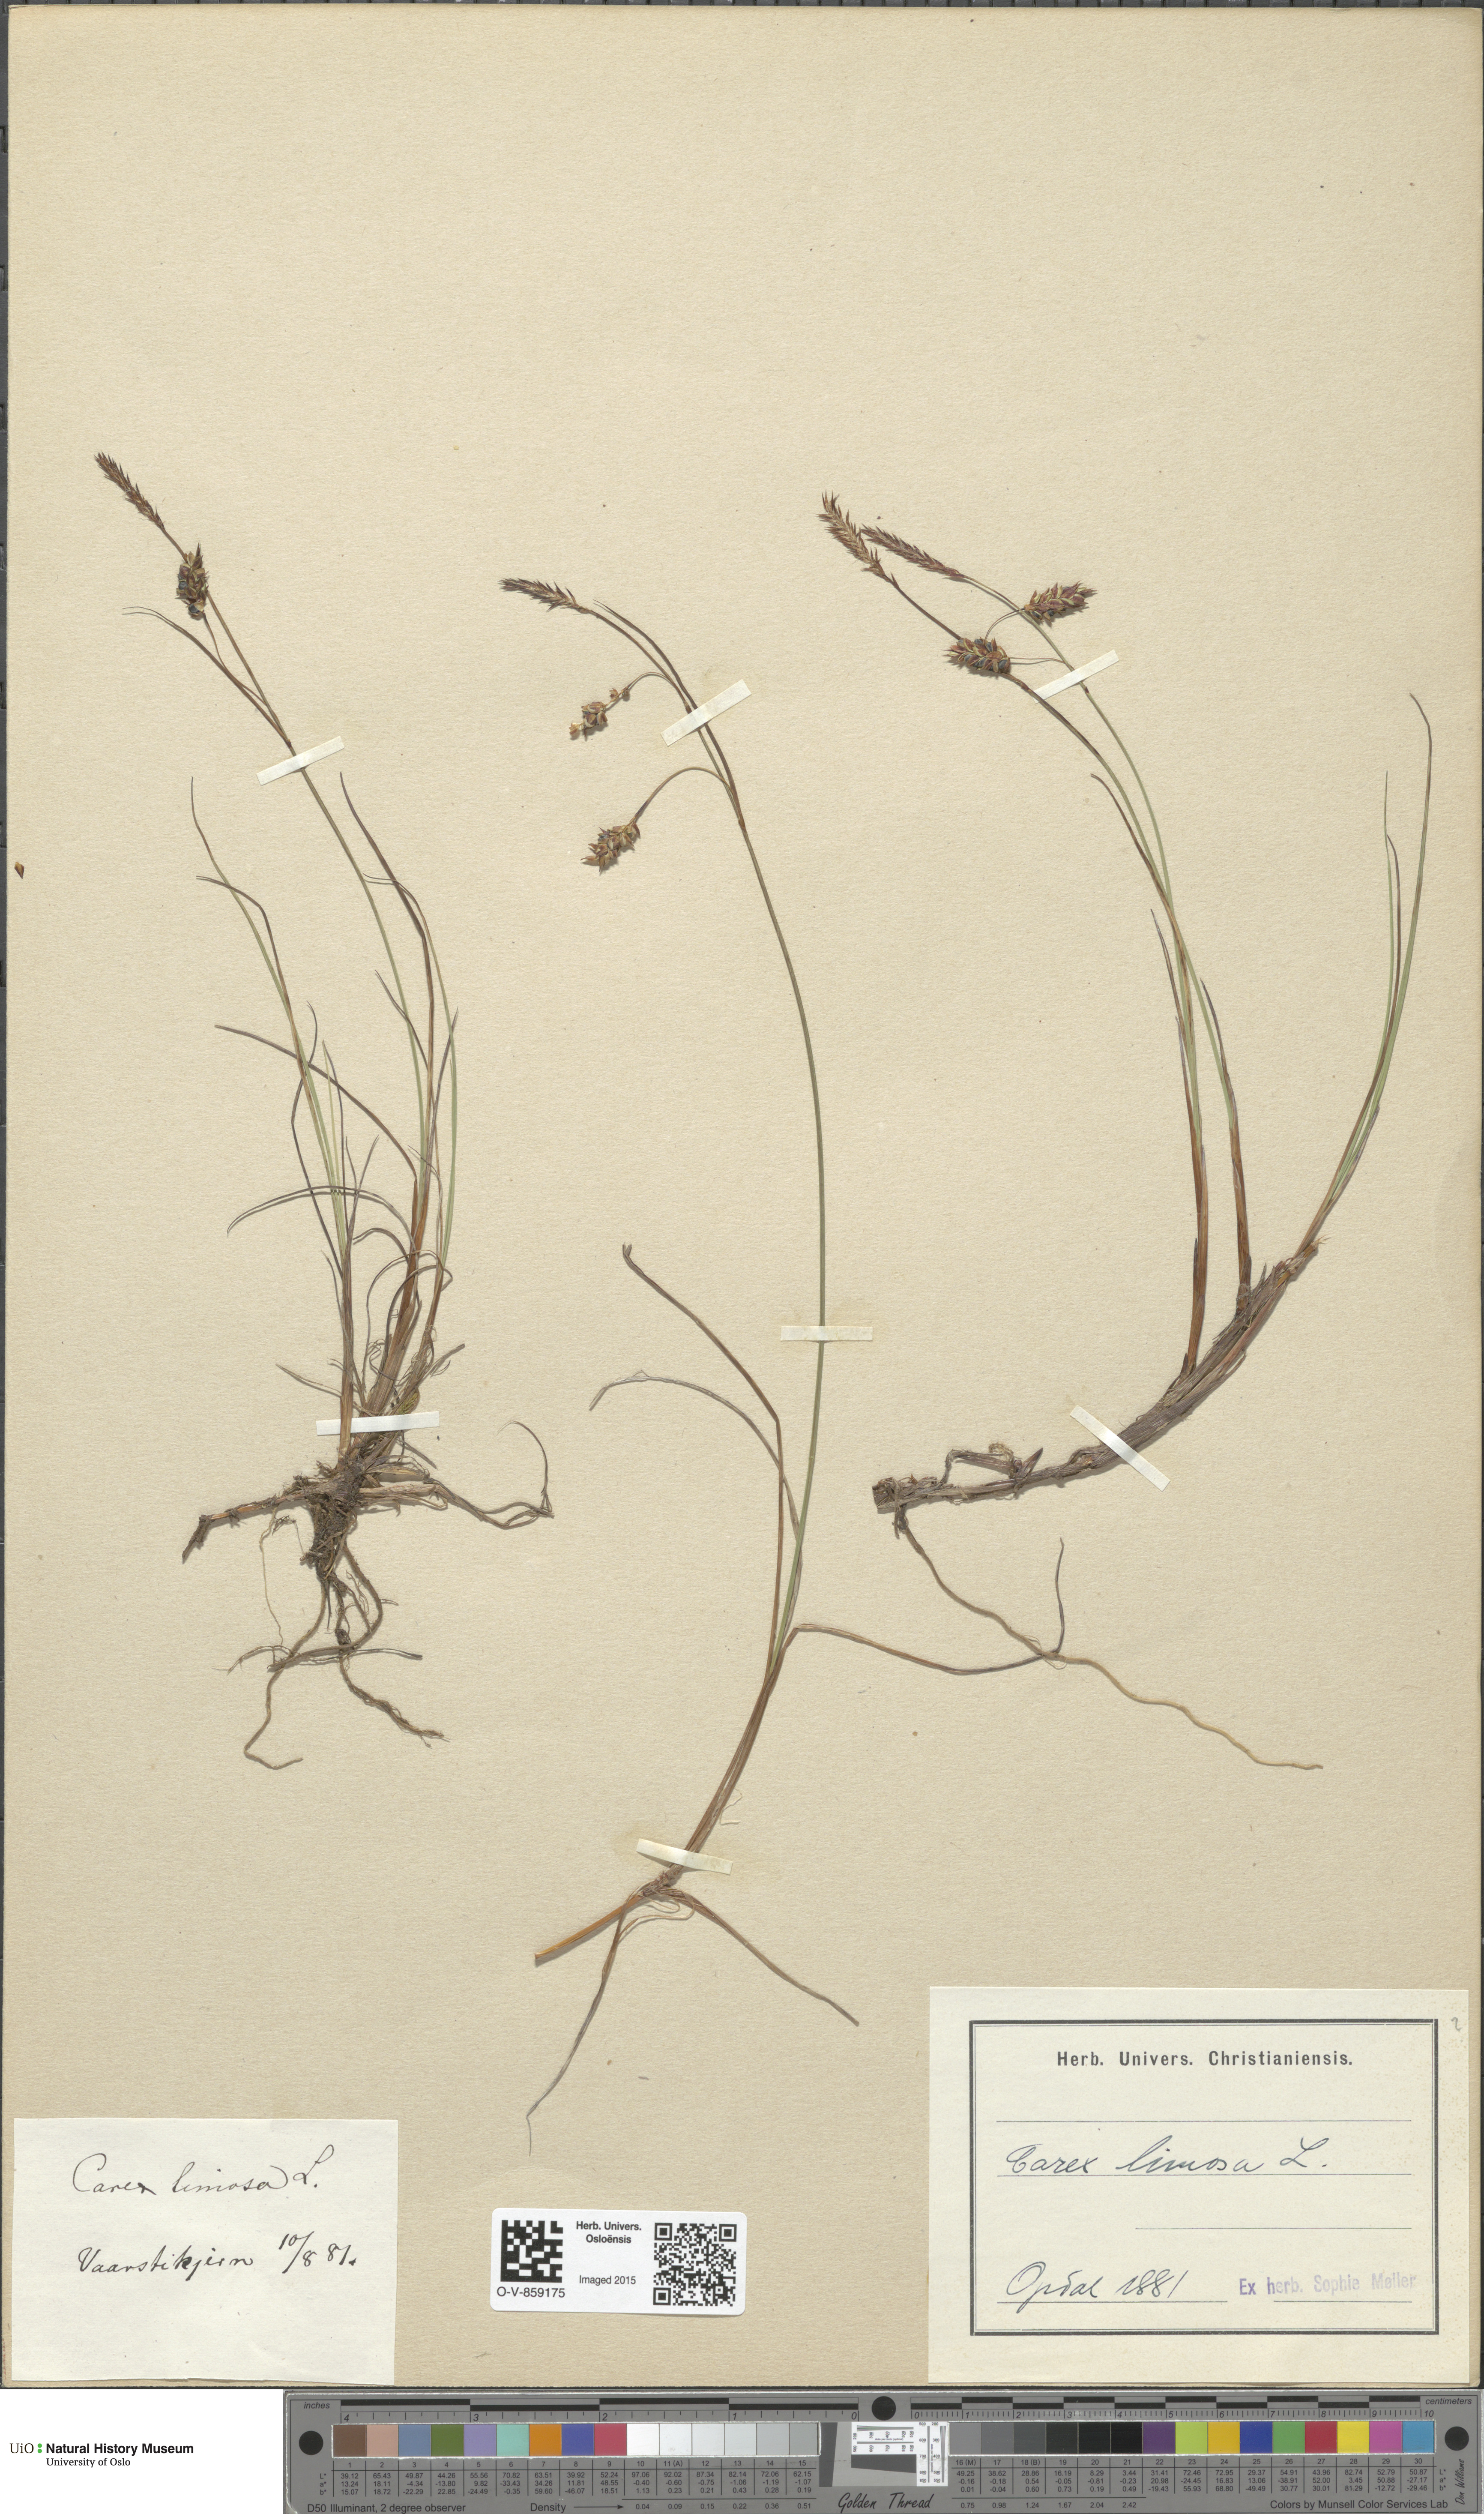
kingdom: Plantae
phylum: Tracheophyta
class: Liliopsida
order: Poales
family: Cyperaceae
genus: Carex
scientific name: Carex limosa
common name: Bog sedge
